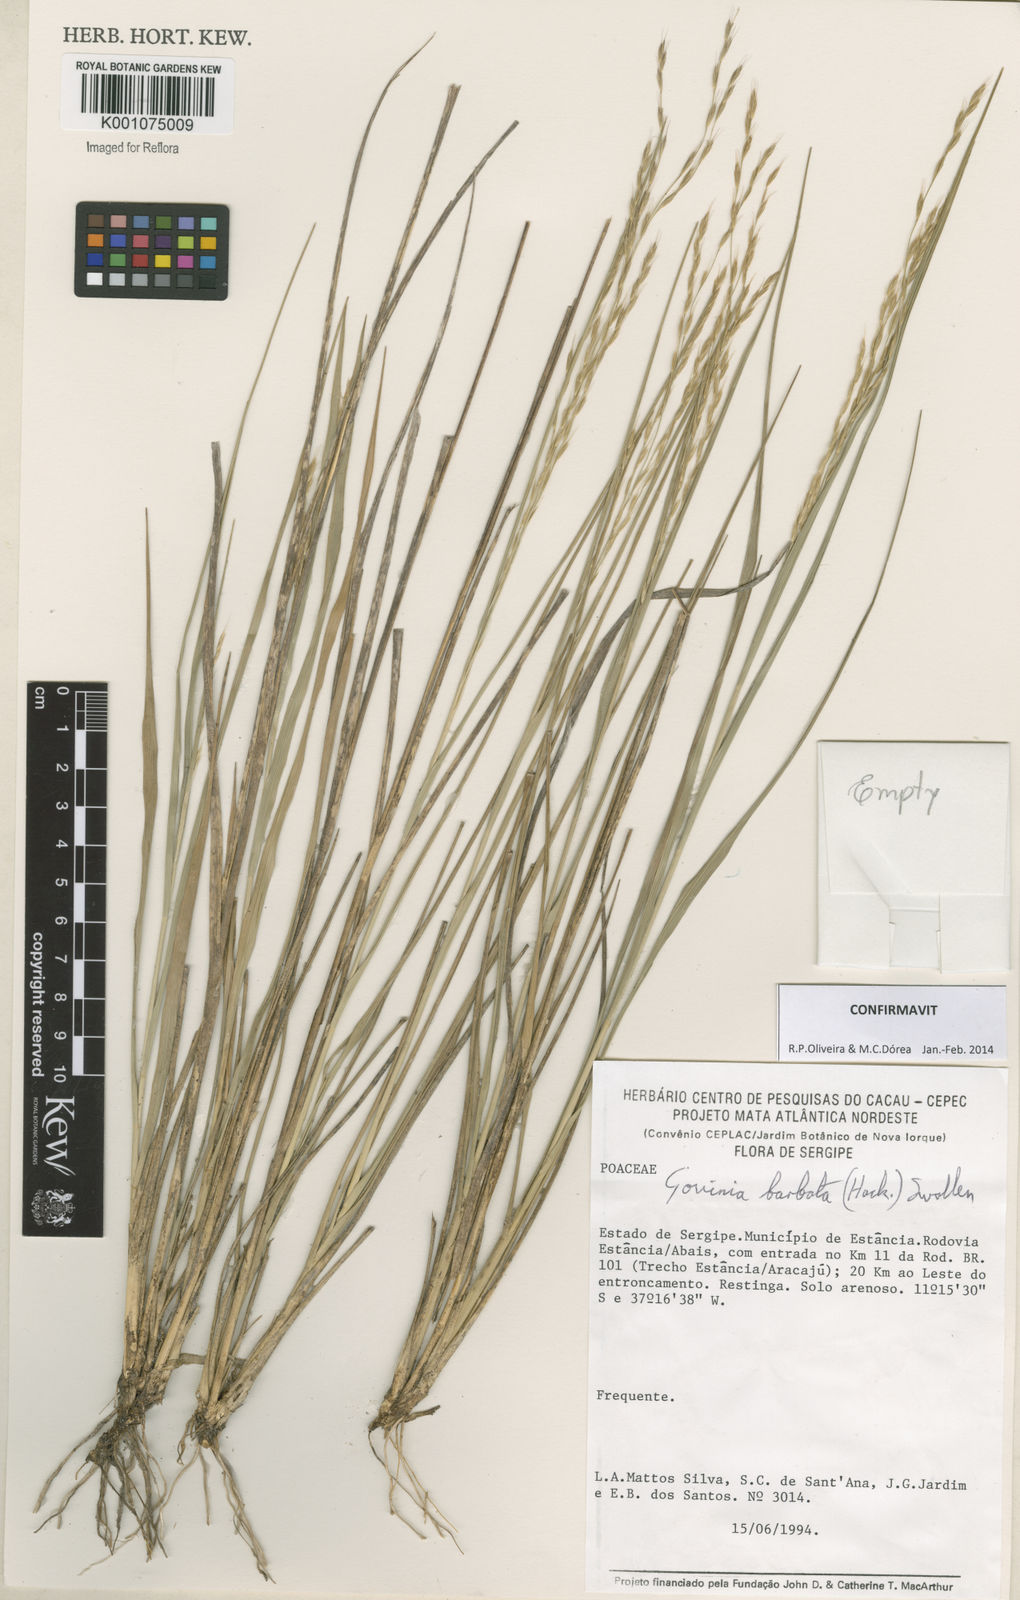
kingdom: Plantae
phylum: Tracheophyta
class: Liliopsida
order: Poales
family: Poaceae
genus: Schenckochloa
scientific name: Schenckochloa barbata
